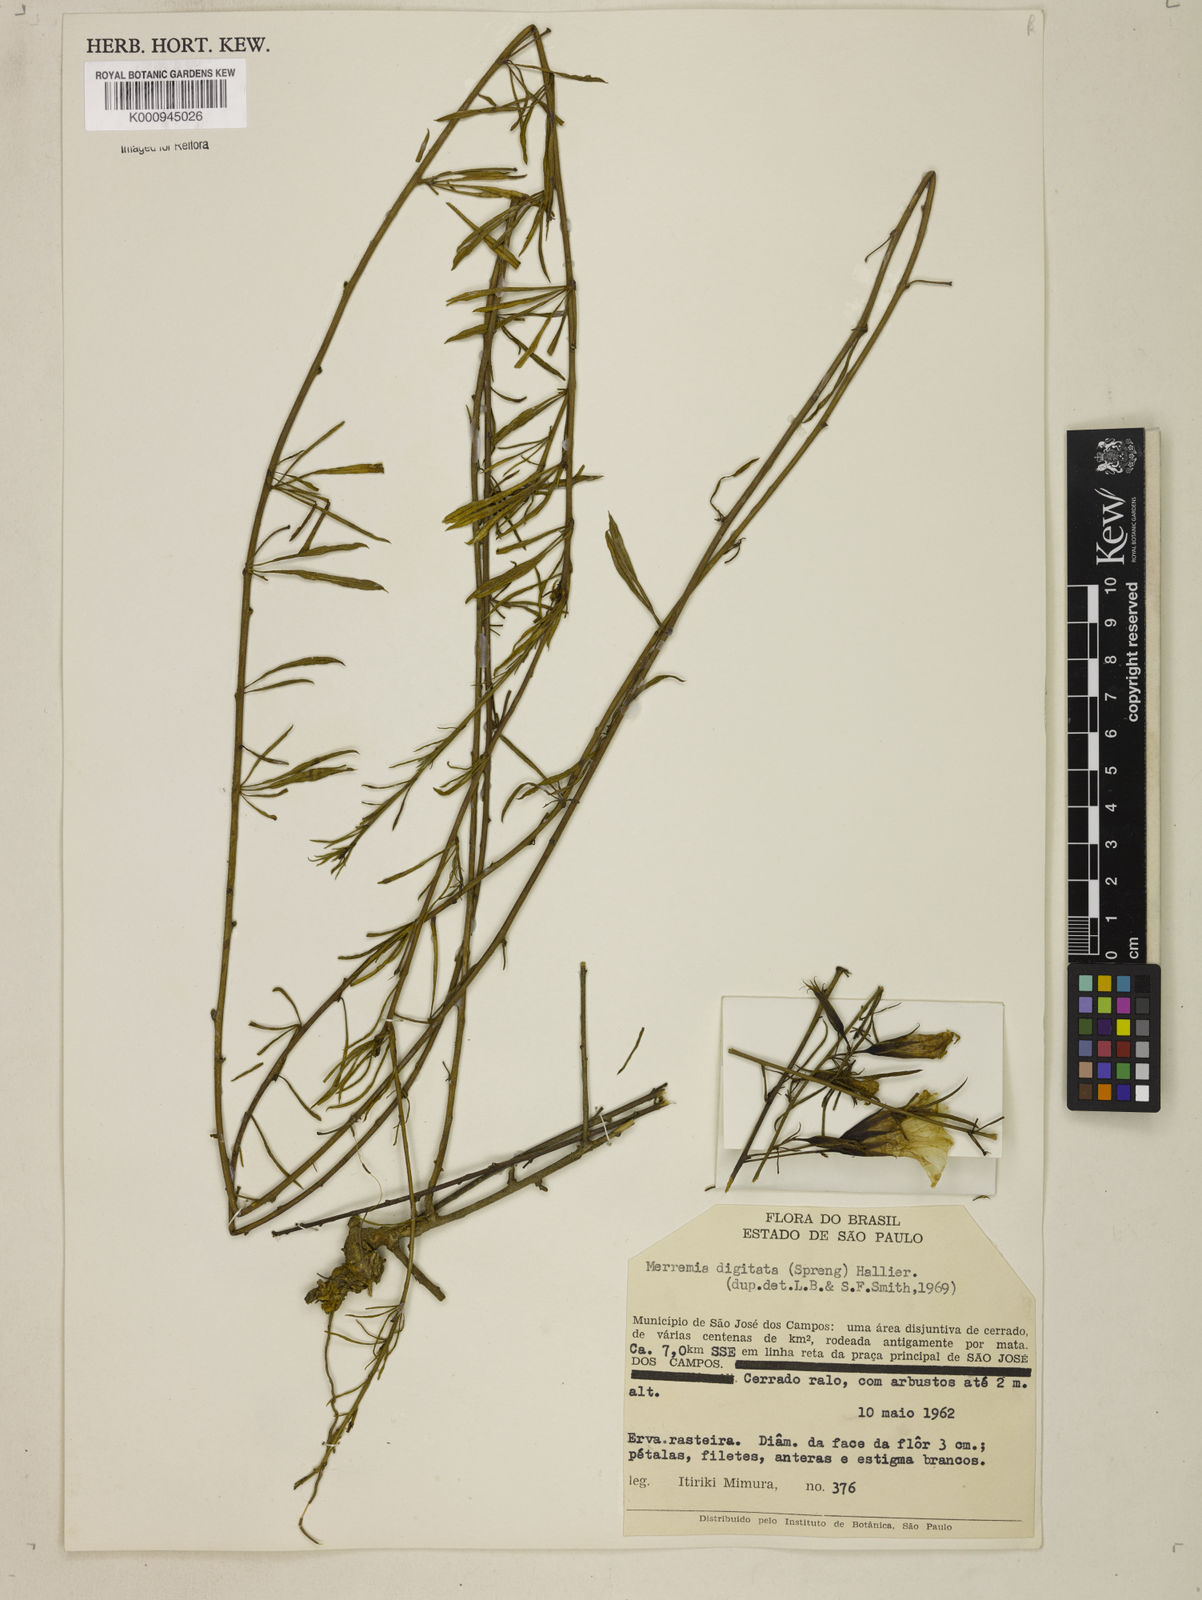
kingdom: Plantae
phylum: Tracheophyta
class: Magnoliopsida
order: Solanales
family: Convolvulaceae
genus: Distimake
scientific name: Distimake digitatus
